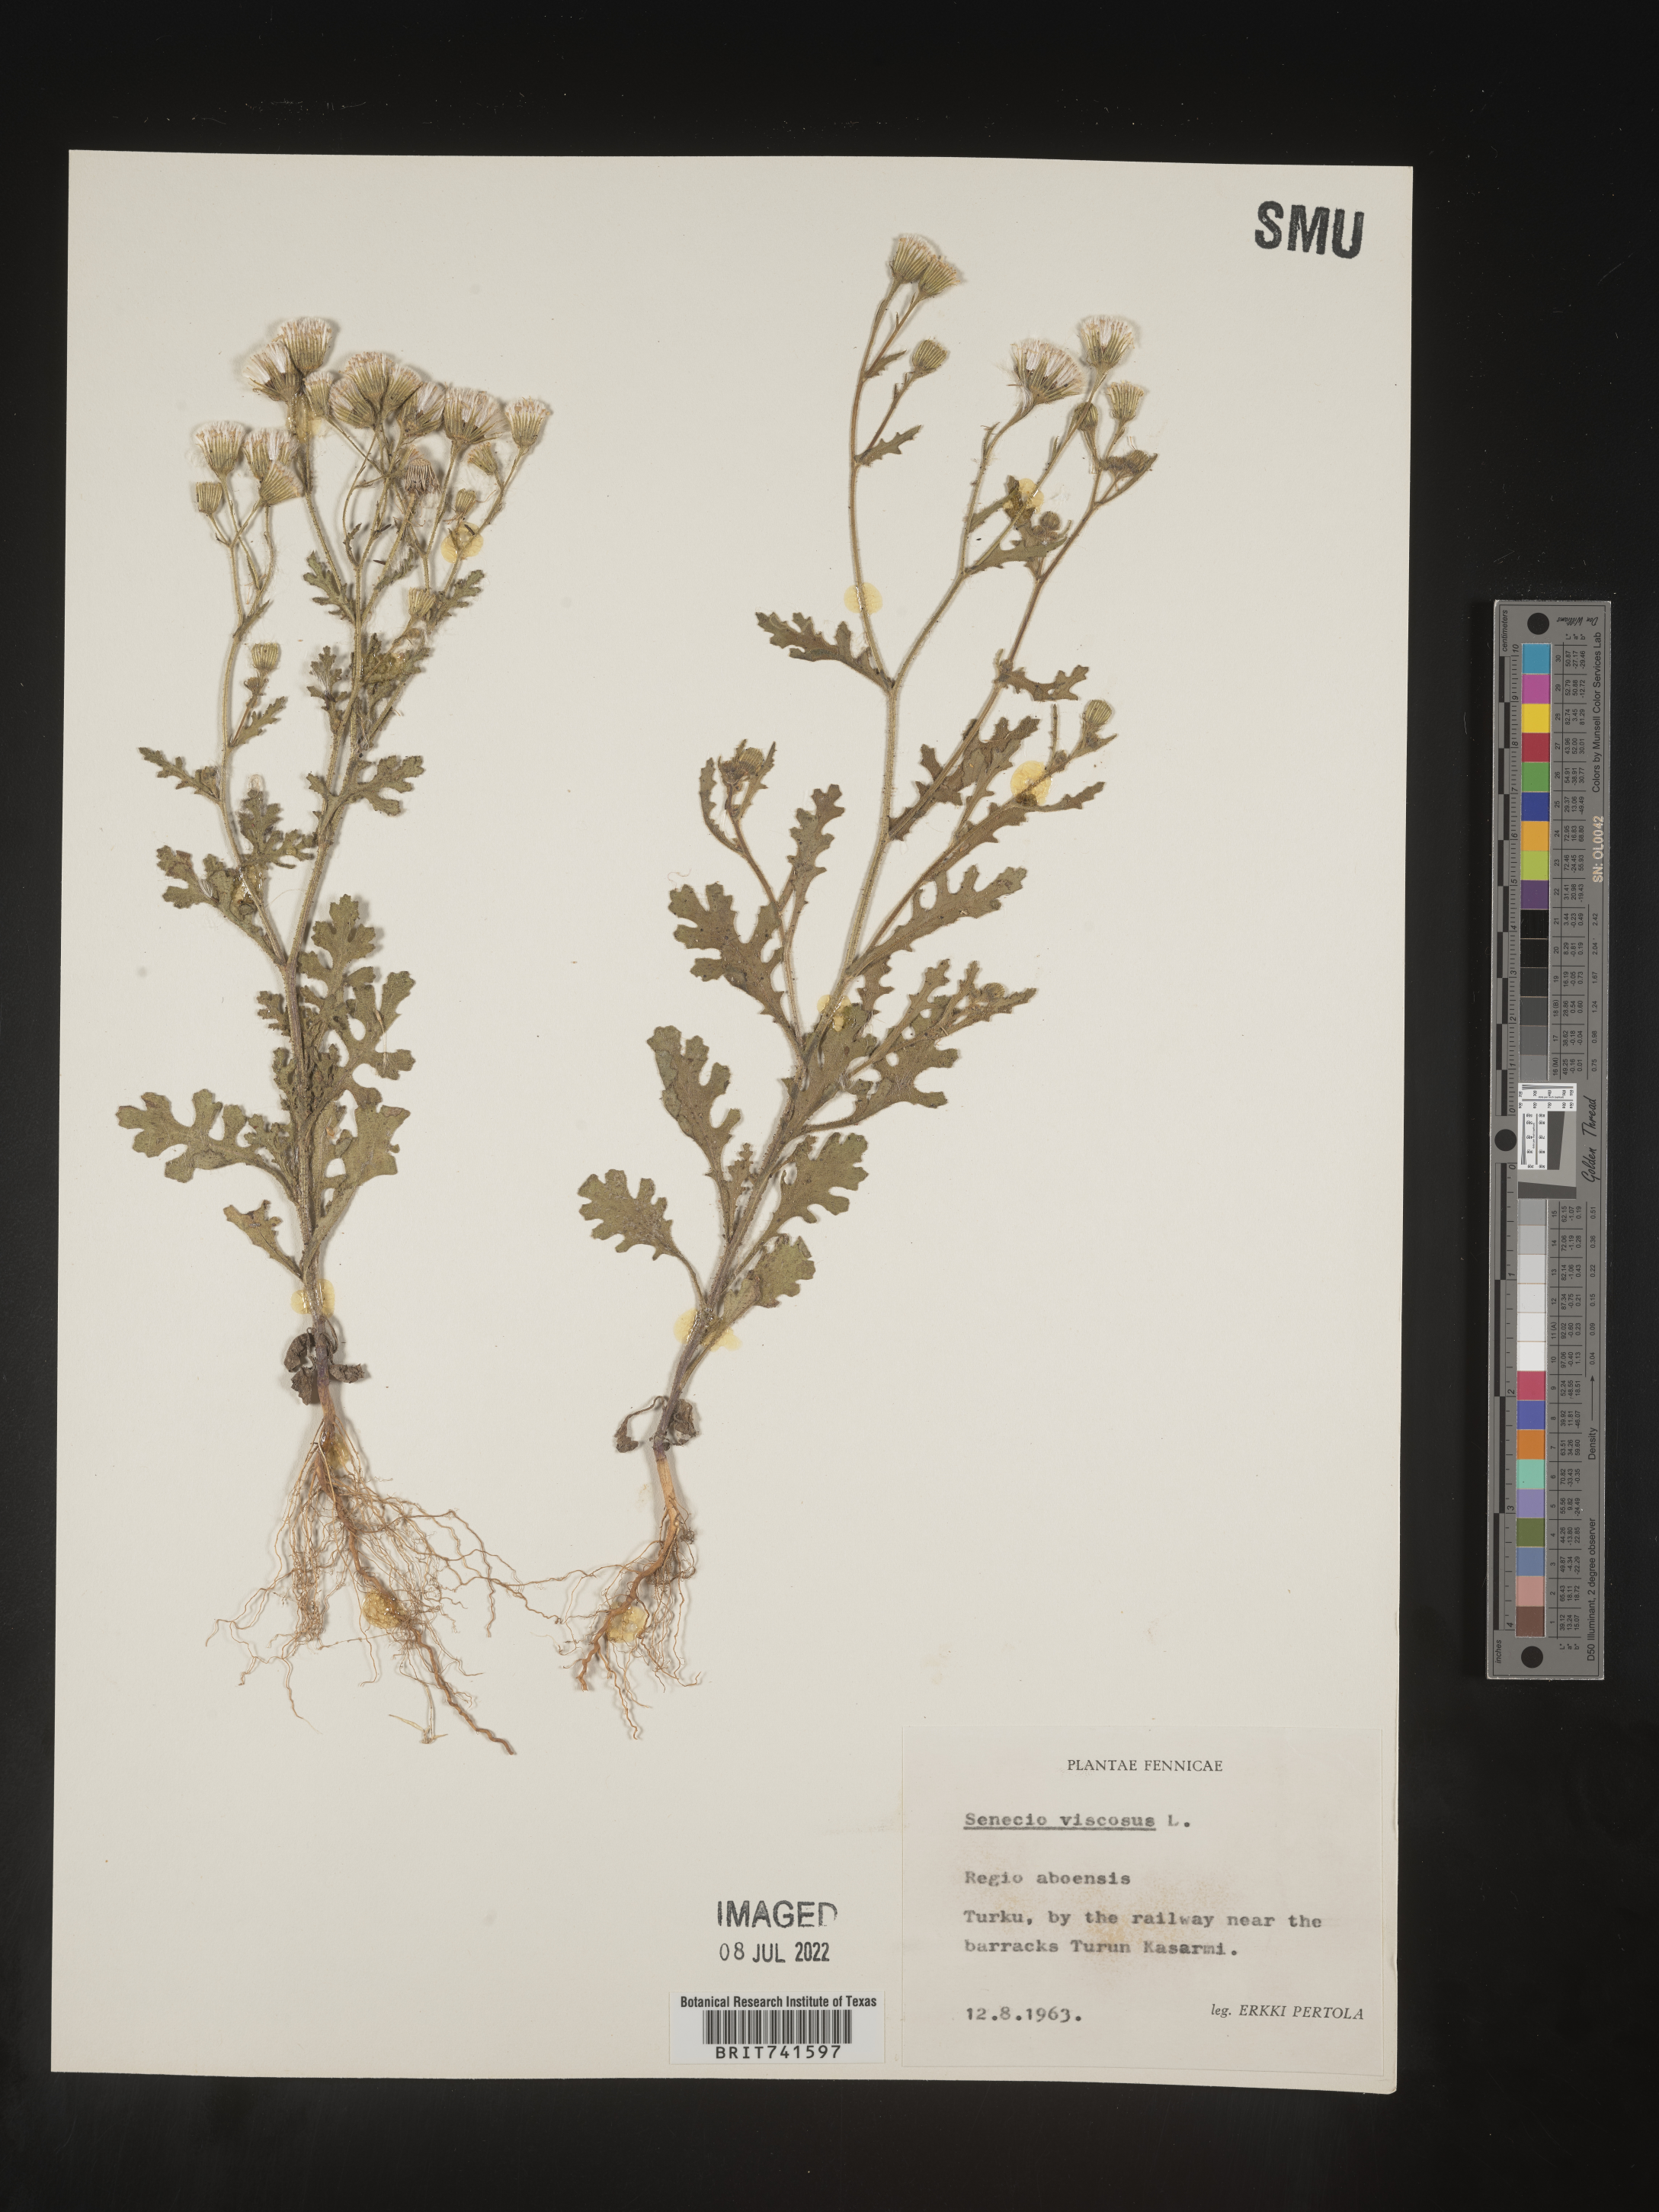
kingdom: Plantae
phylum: Tracheophyta
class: Magnoliopsida
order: Asterales
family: Asteraceae
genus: Senecio
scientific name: Senecio
